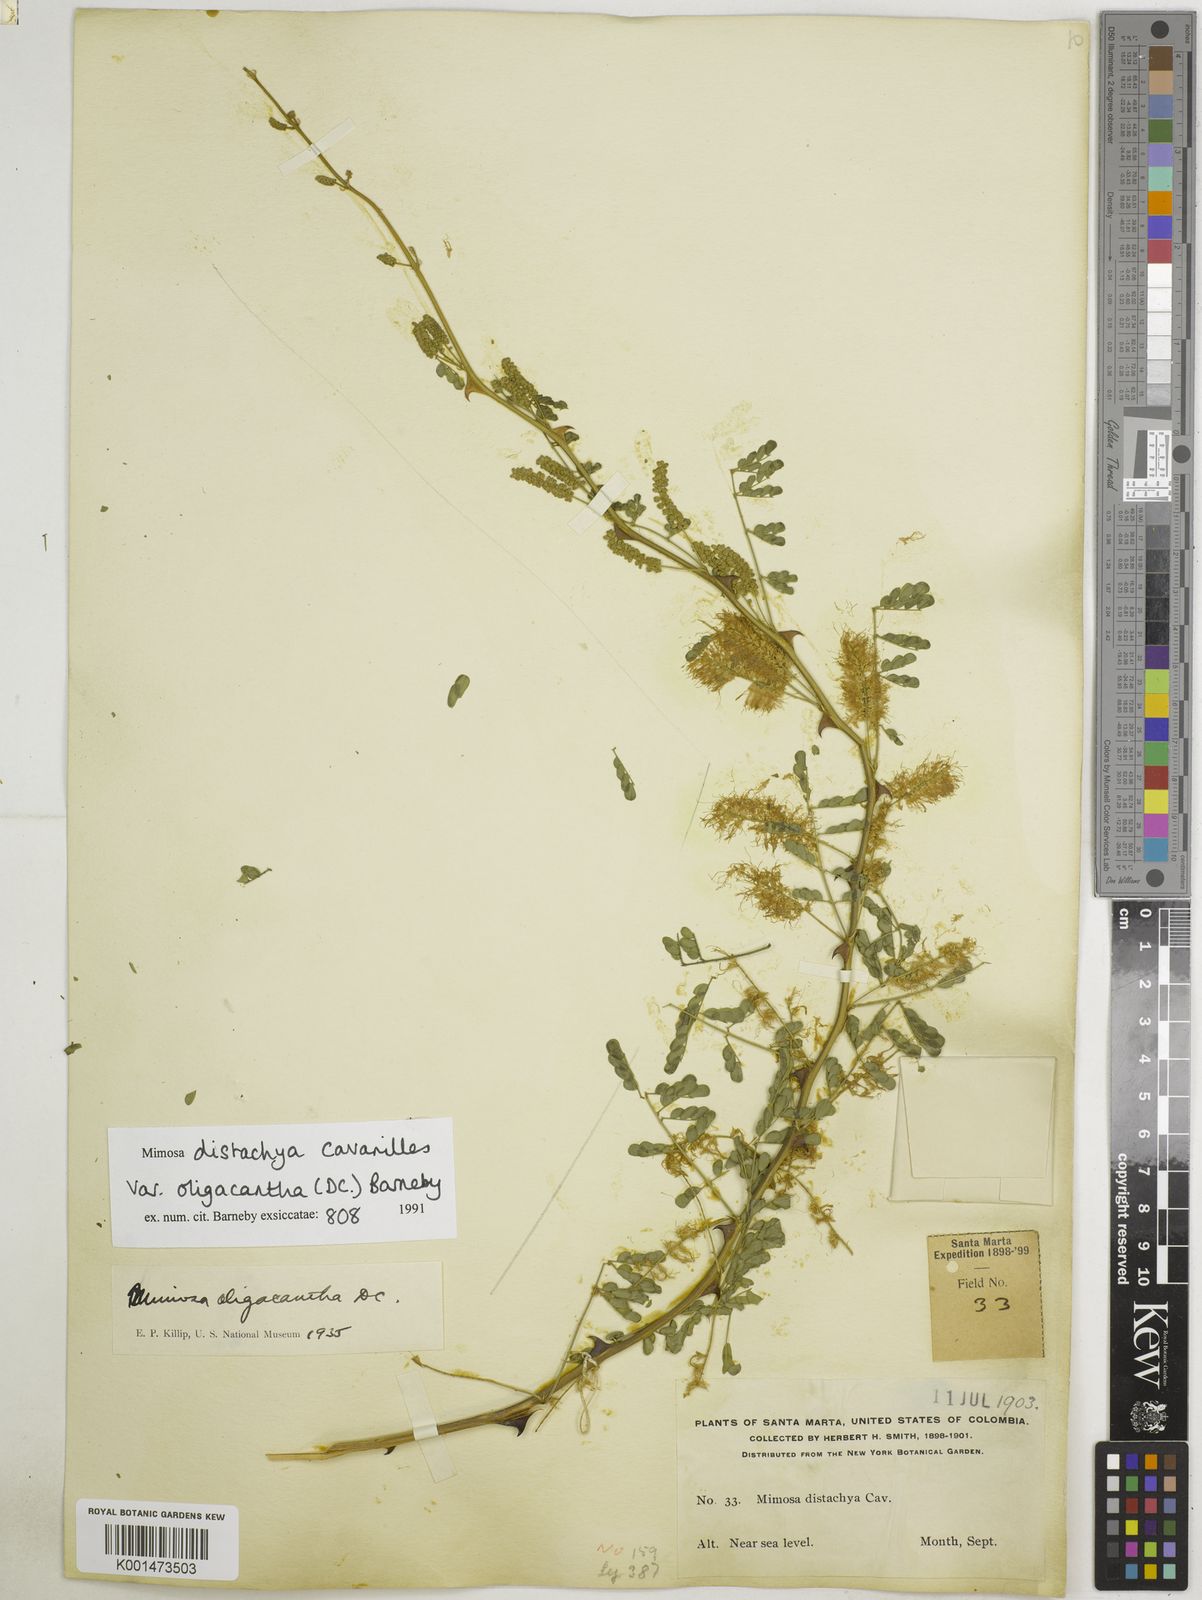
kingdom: Plantae
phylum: Tracheophyta
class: Magnoliopsida
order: Fabales
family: Fabaceae
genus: Mimosa
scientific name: Mimosa distachya
